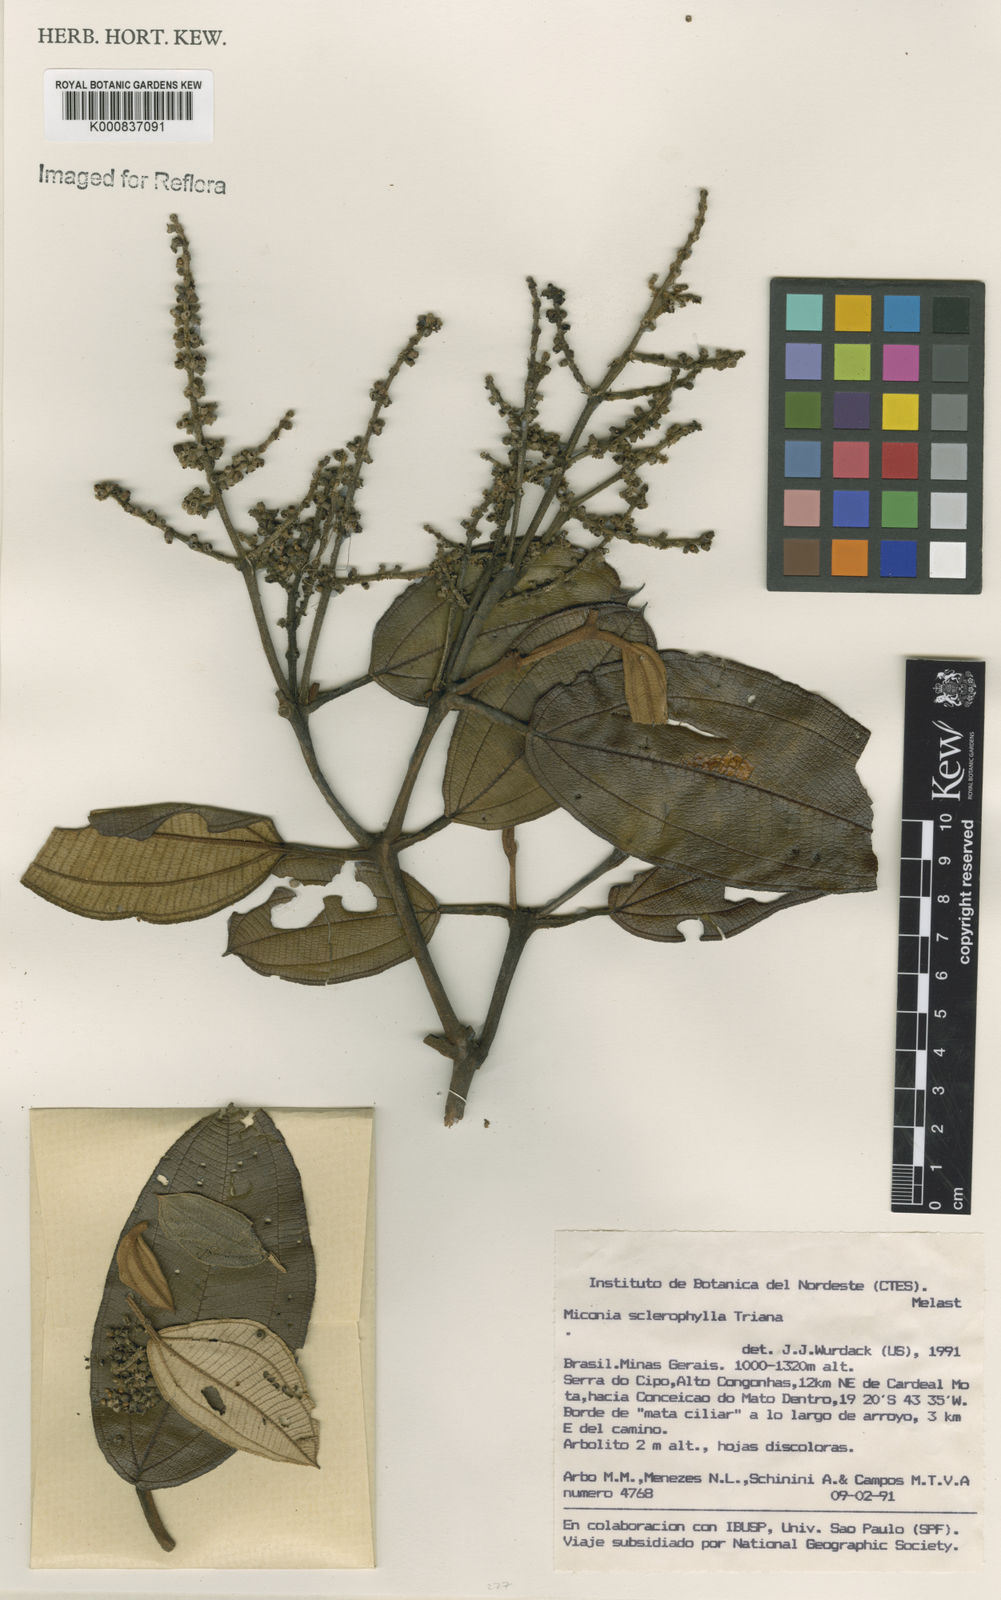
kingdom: Plantae
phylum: Tracheophyta
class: Magnoliopsida
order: Myrtales
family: Melastomataceae
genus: Miconia
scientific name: Miconia sclerophylla
